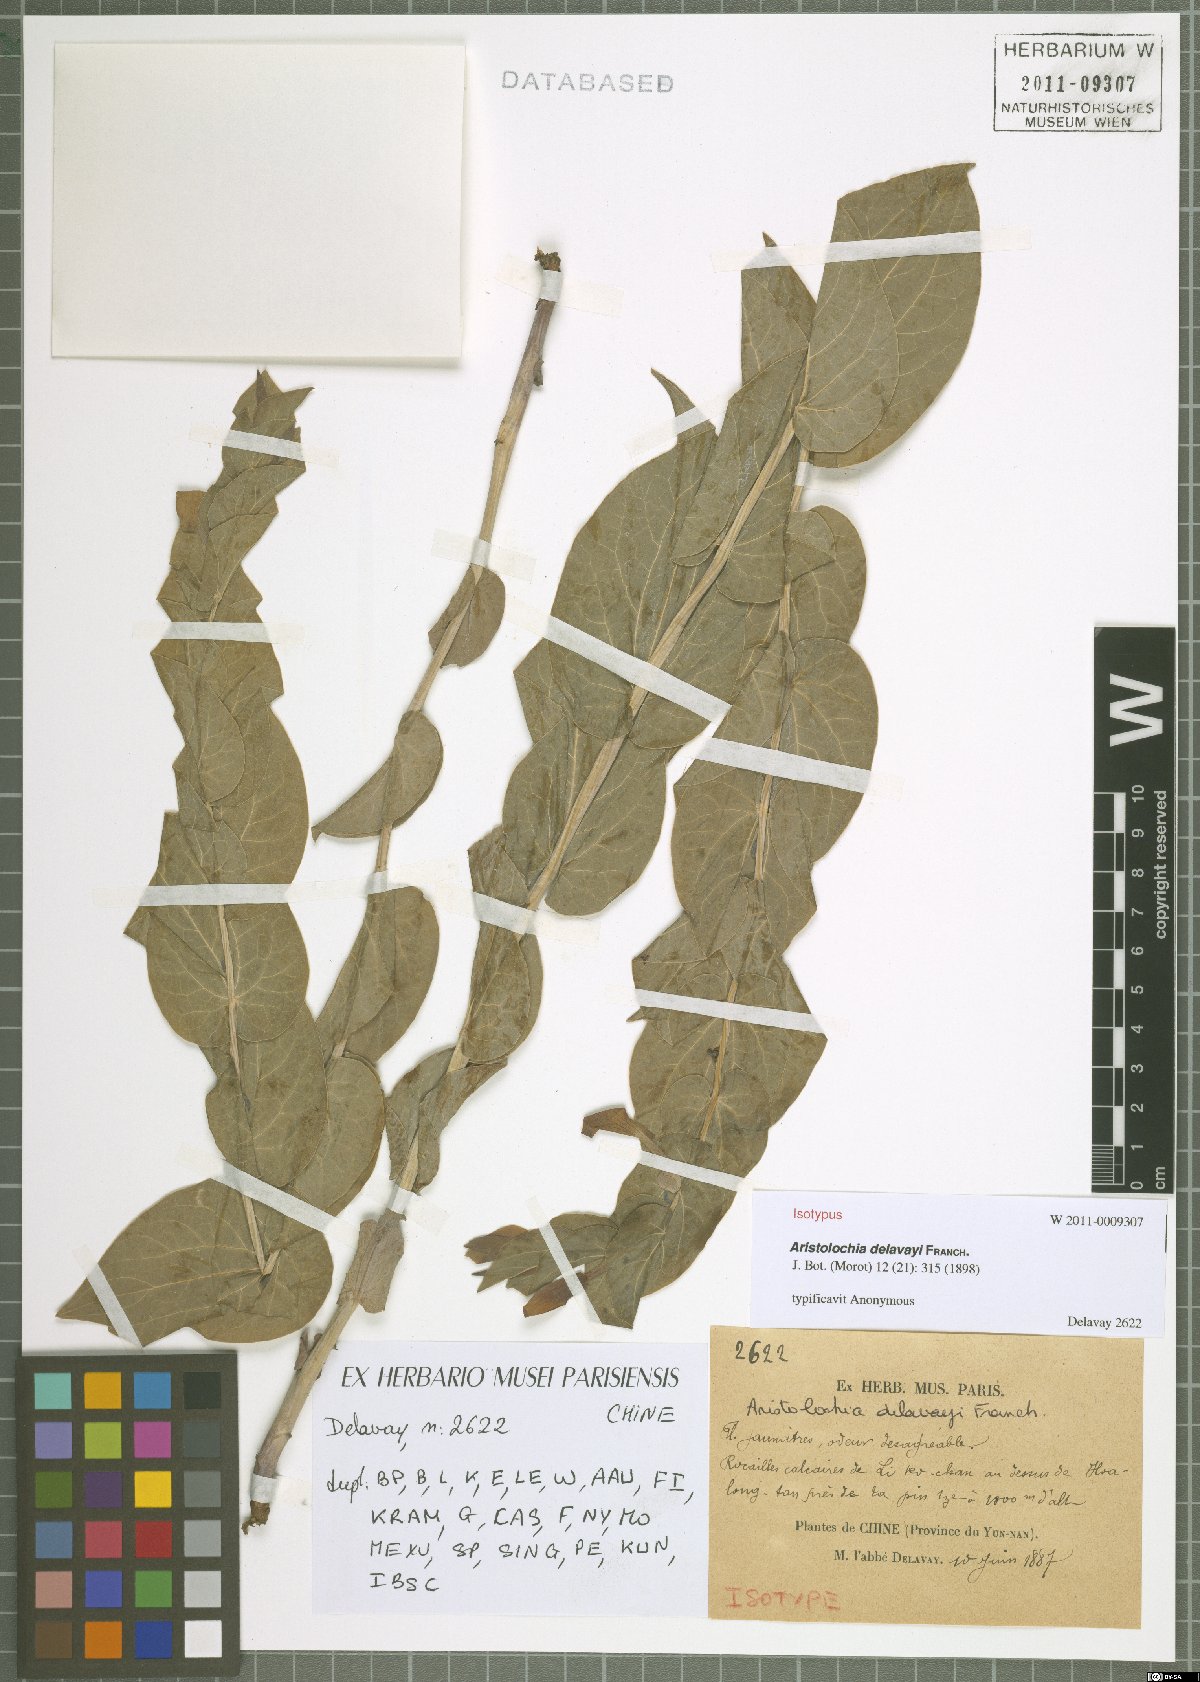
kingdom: Plantae
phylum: Tracheophyta
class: Magnoliopsida
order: Piperales
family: Aristolochiaceae
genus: Aristolochia
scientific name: Aristolochia delavayi
